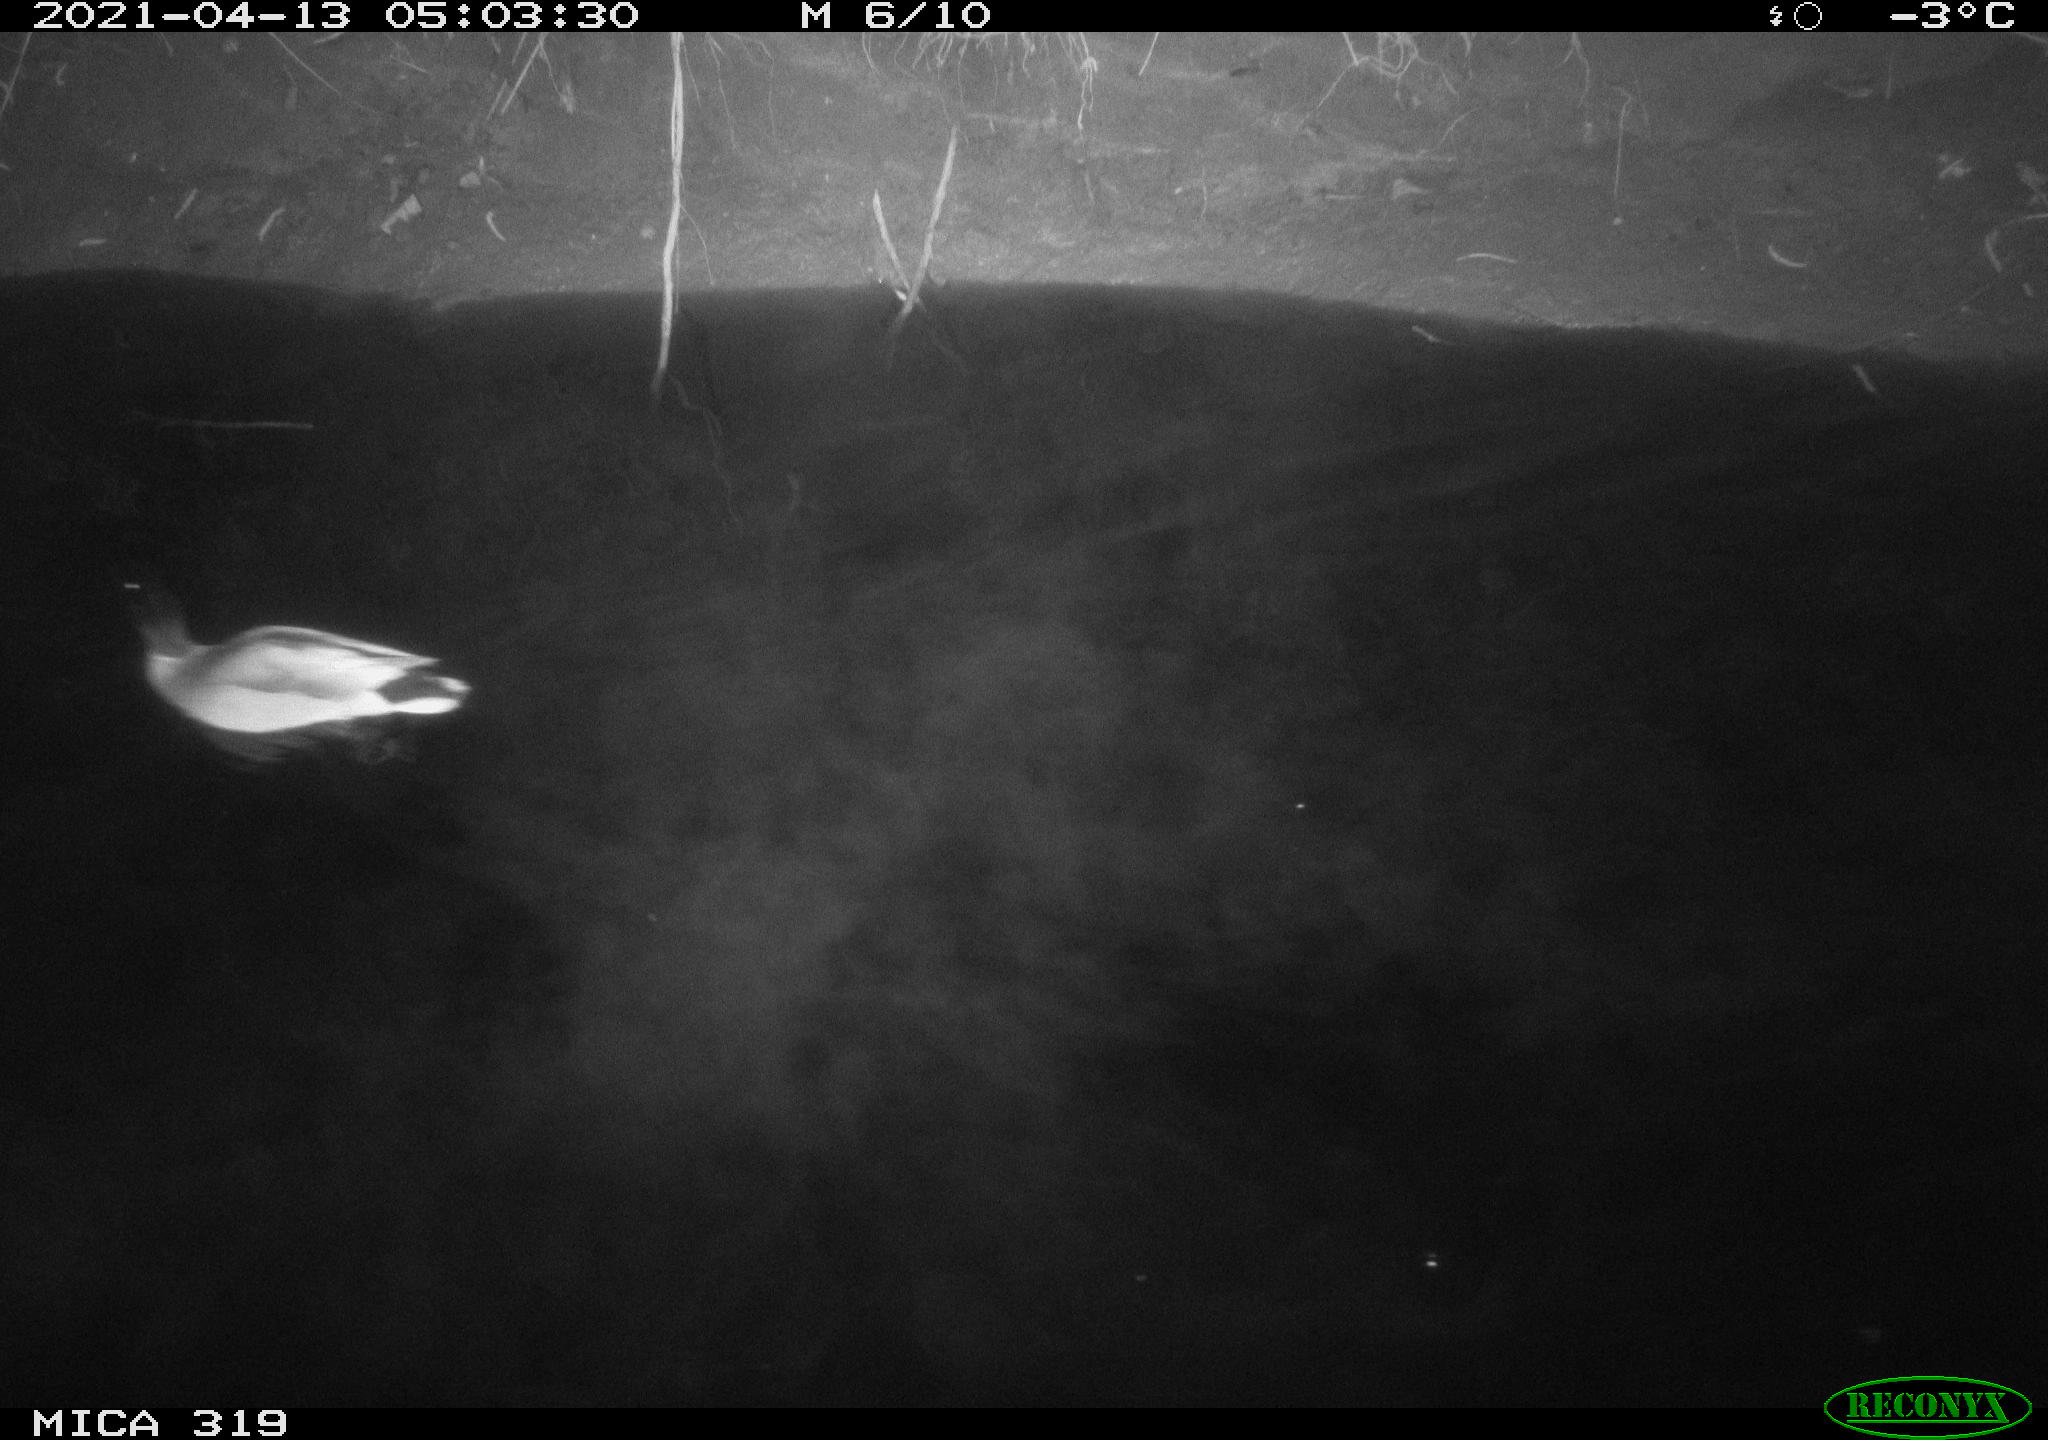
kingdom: Animalia
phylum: Chordata
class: Aves
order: Anseriformes
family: Anatidae
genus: Anas
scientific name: Anas platyrhynchos
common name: Mallard
